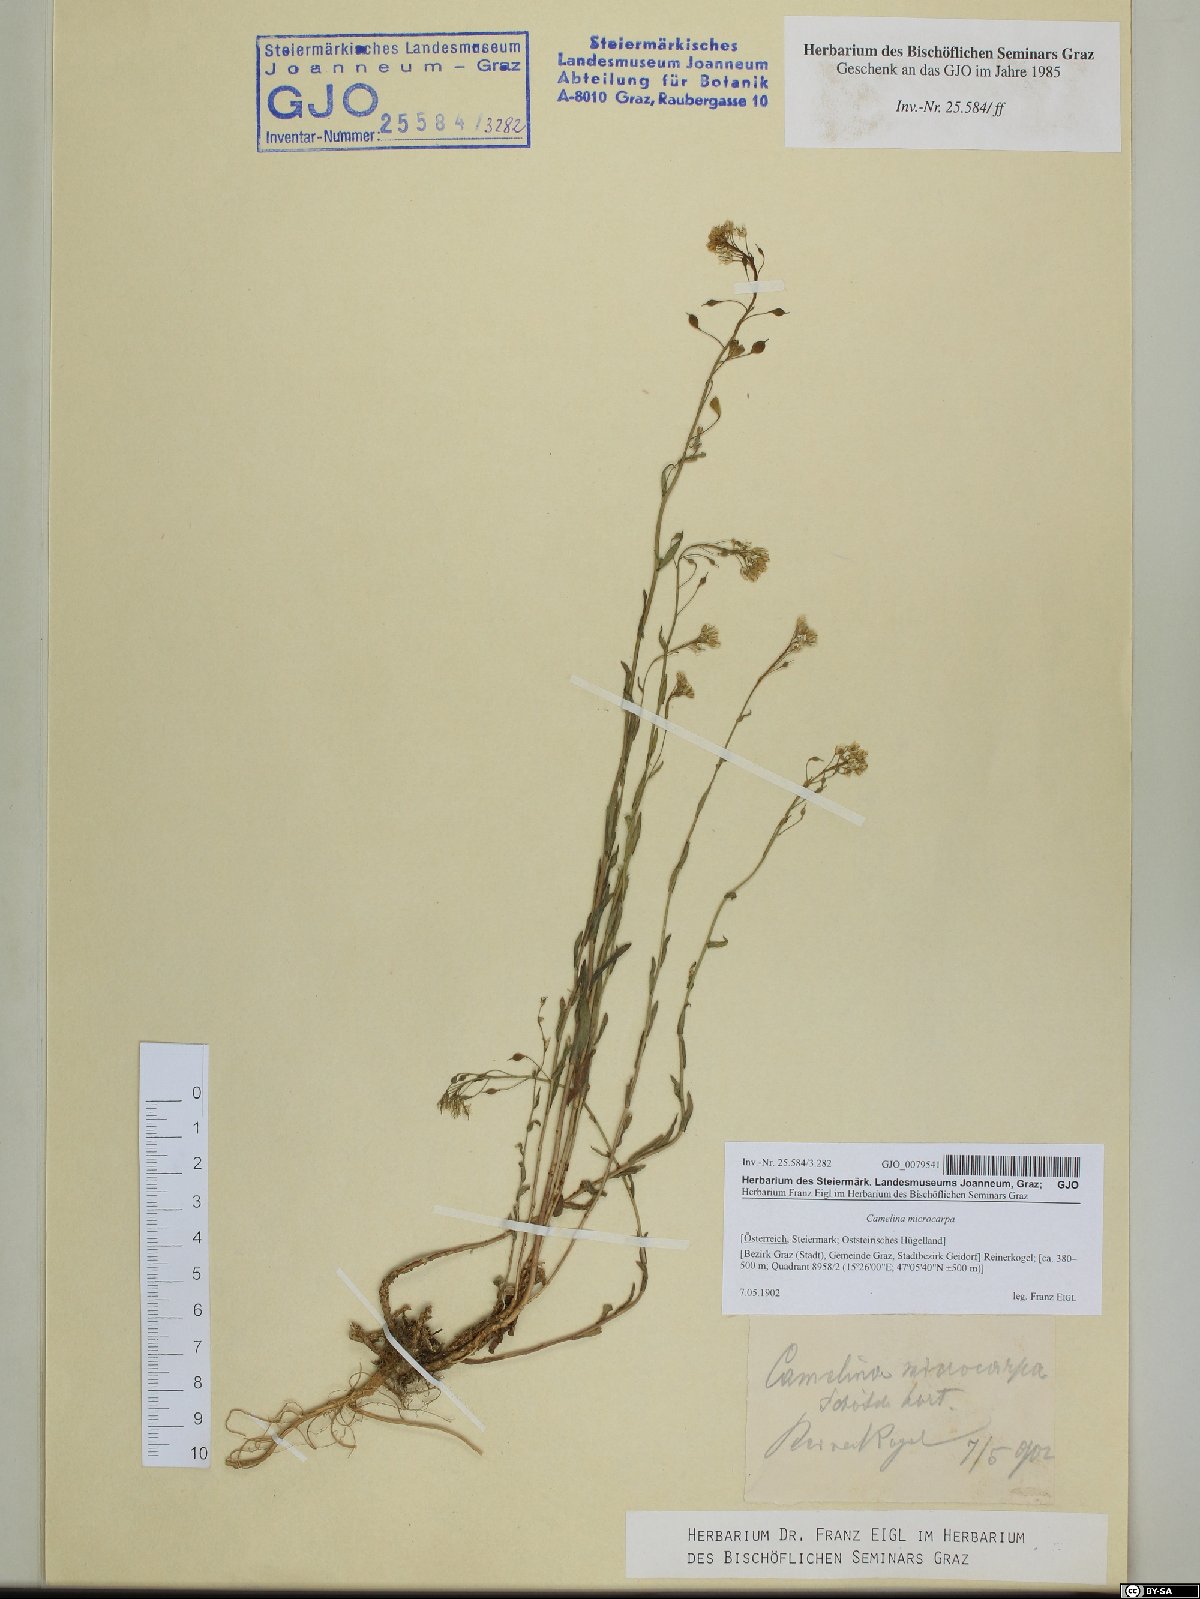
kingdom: Plantae
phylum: Tracheophyta
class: Magnoliopsida
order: Brassicales
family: Brassicaceae
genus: Camelina
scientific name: Camelina microcarpa
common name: Lesser gold-of-pleasure
